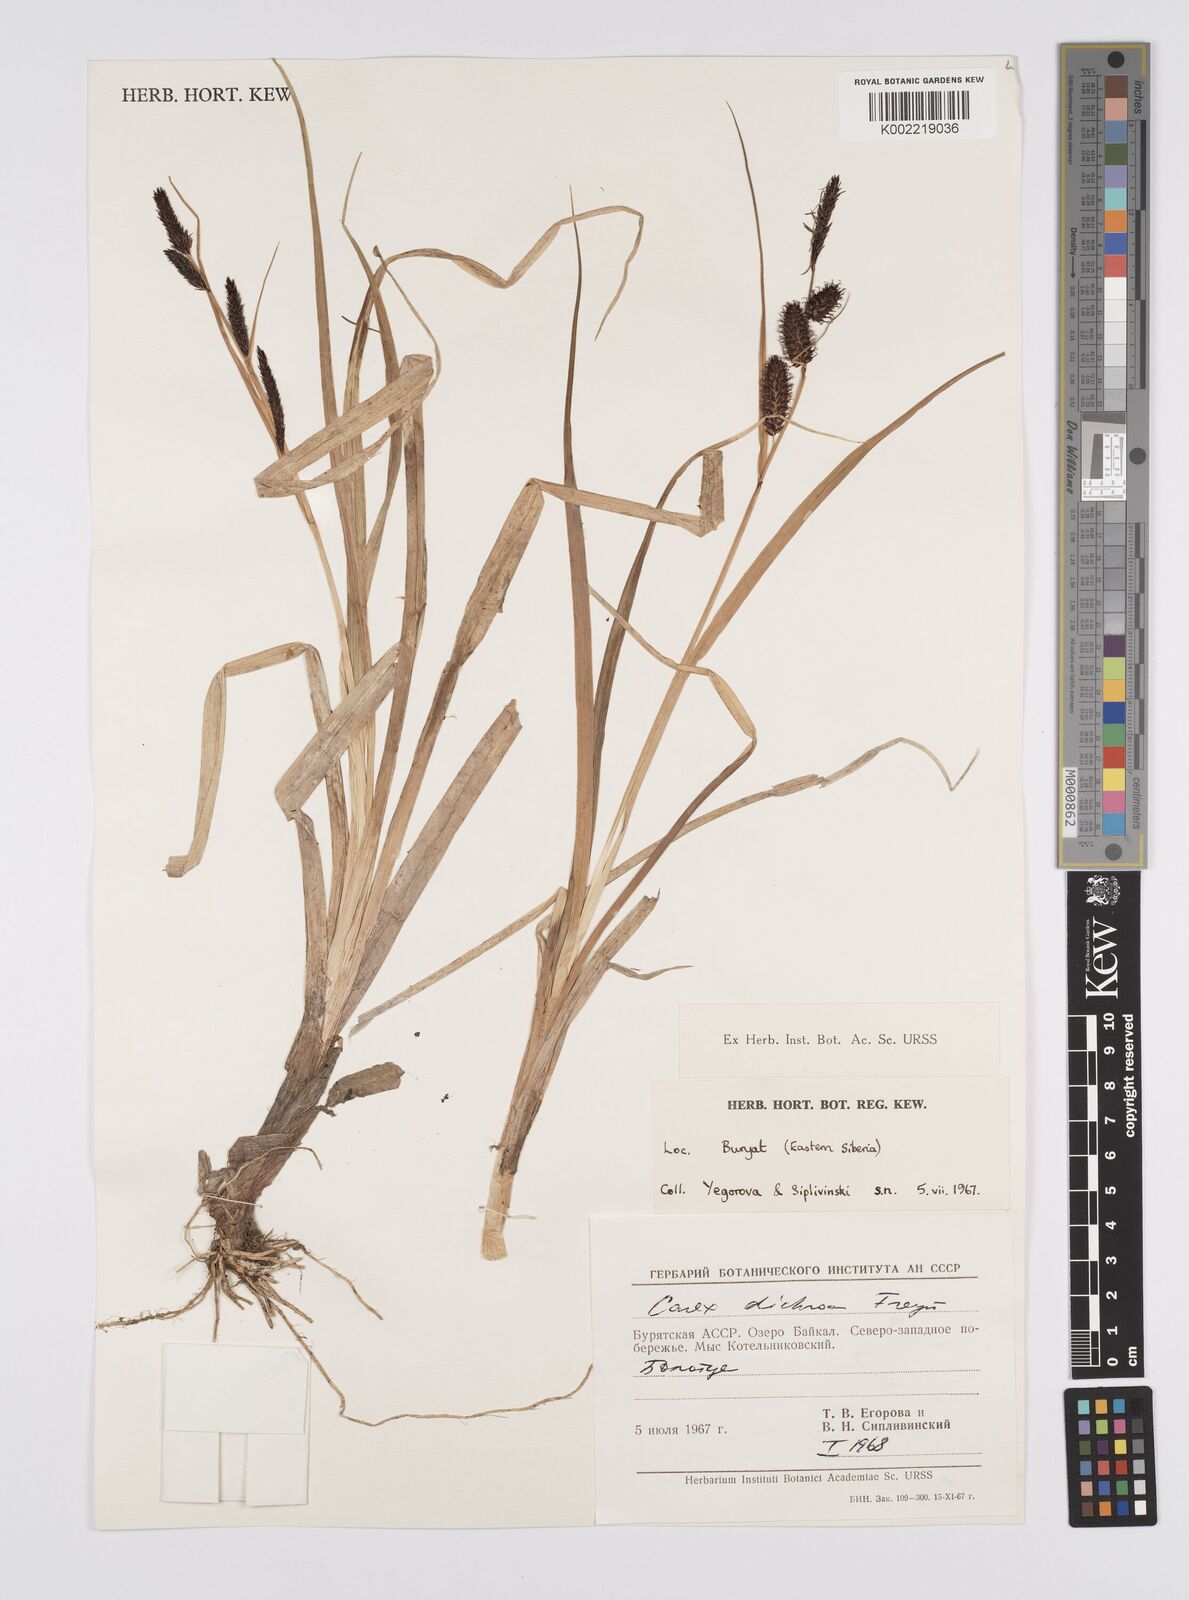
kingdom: Plantae
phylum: Tracheophyta
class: Liliopsida
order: Poales
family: Cyperaceae
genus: Carex
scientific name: Carex
